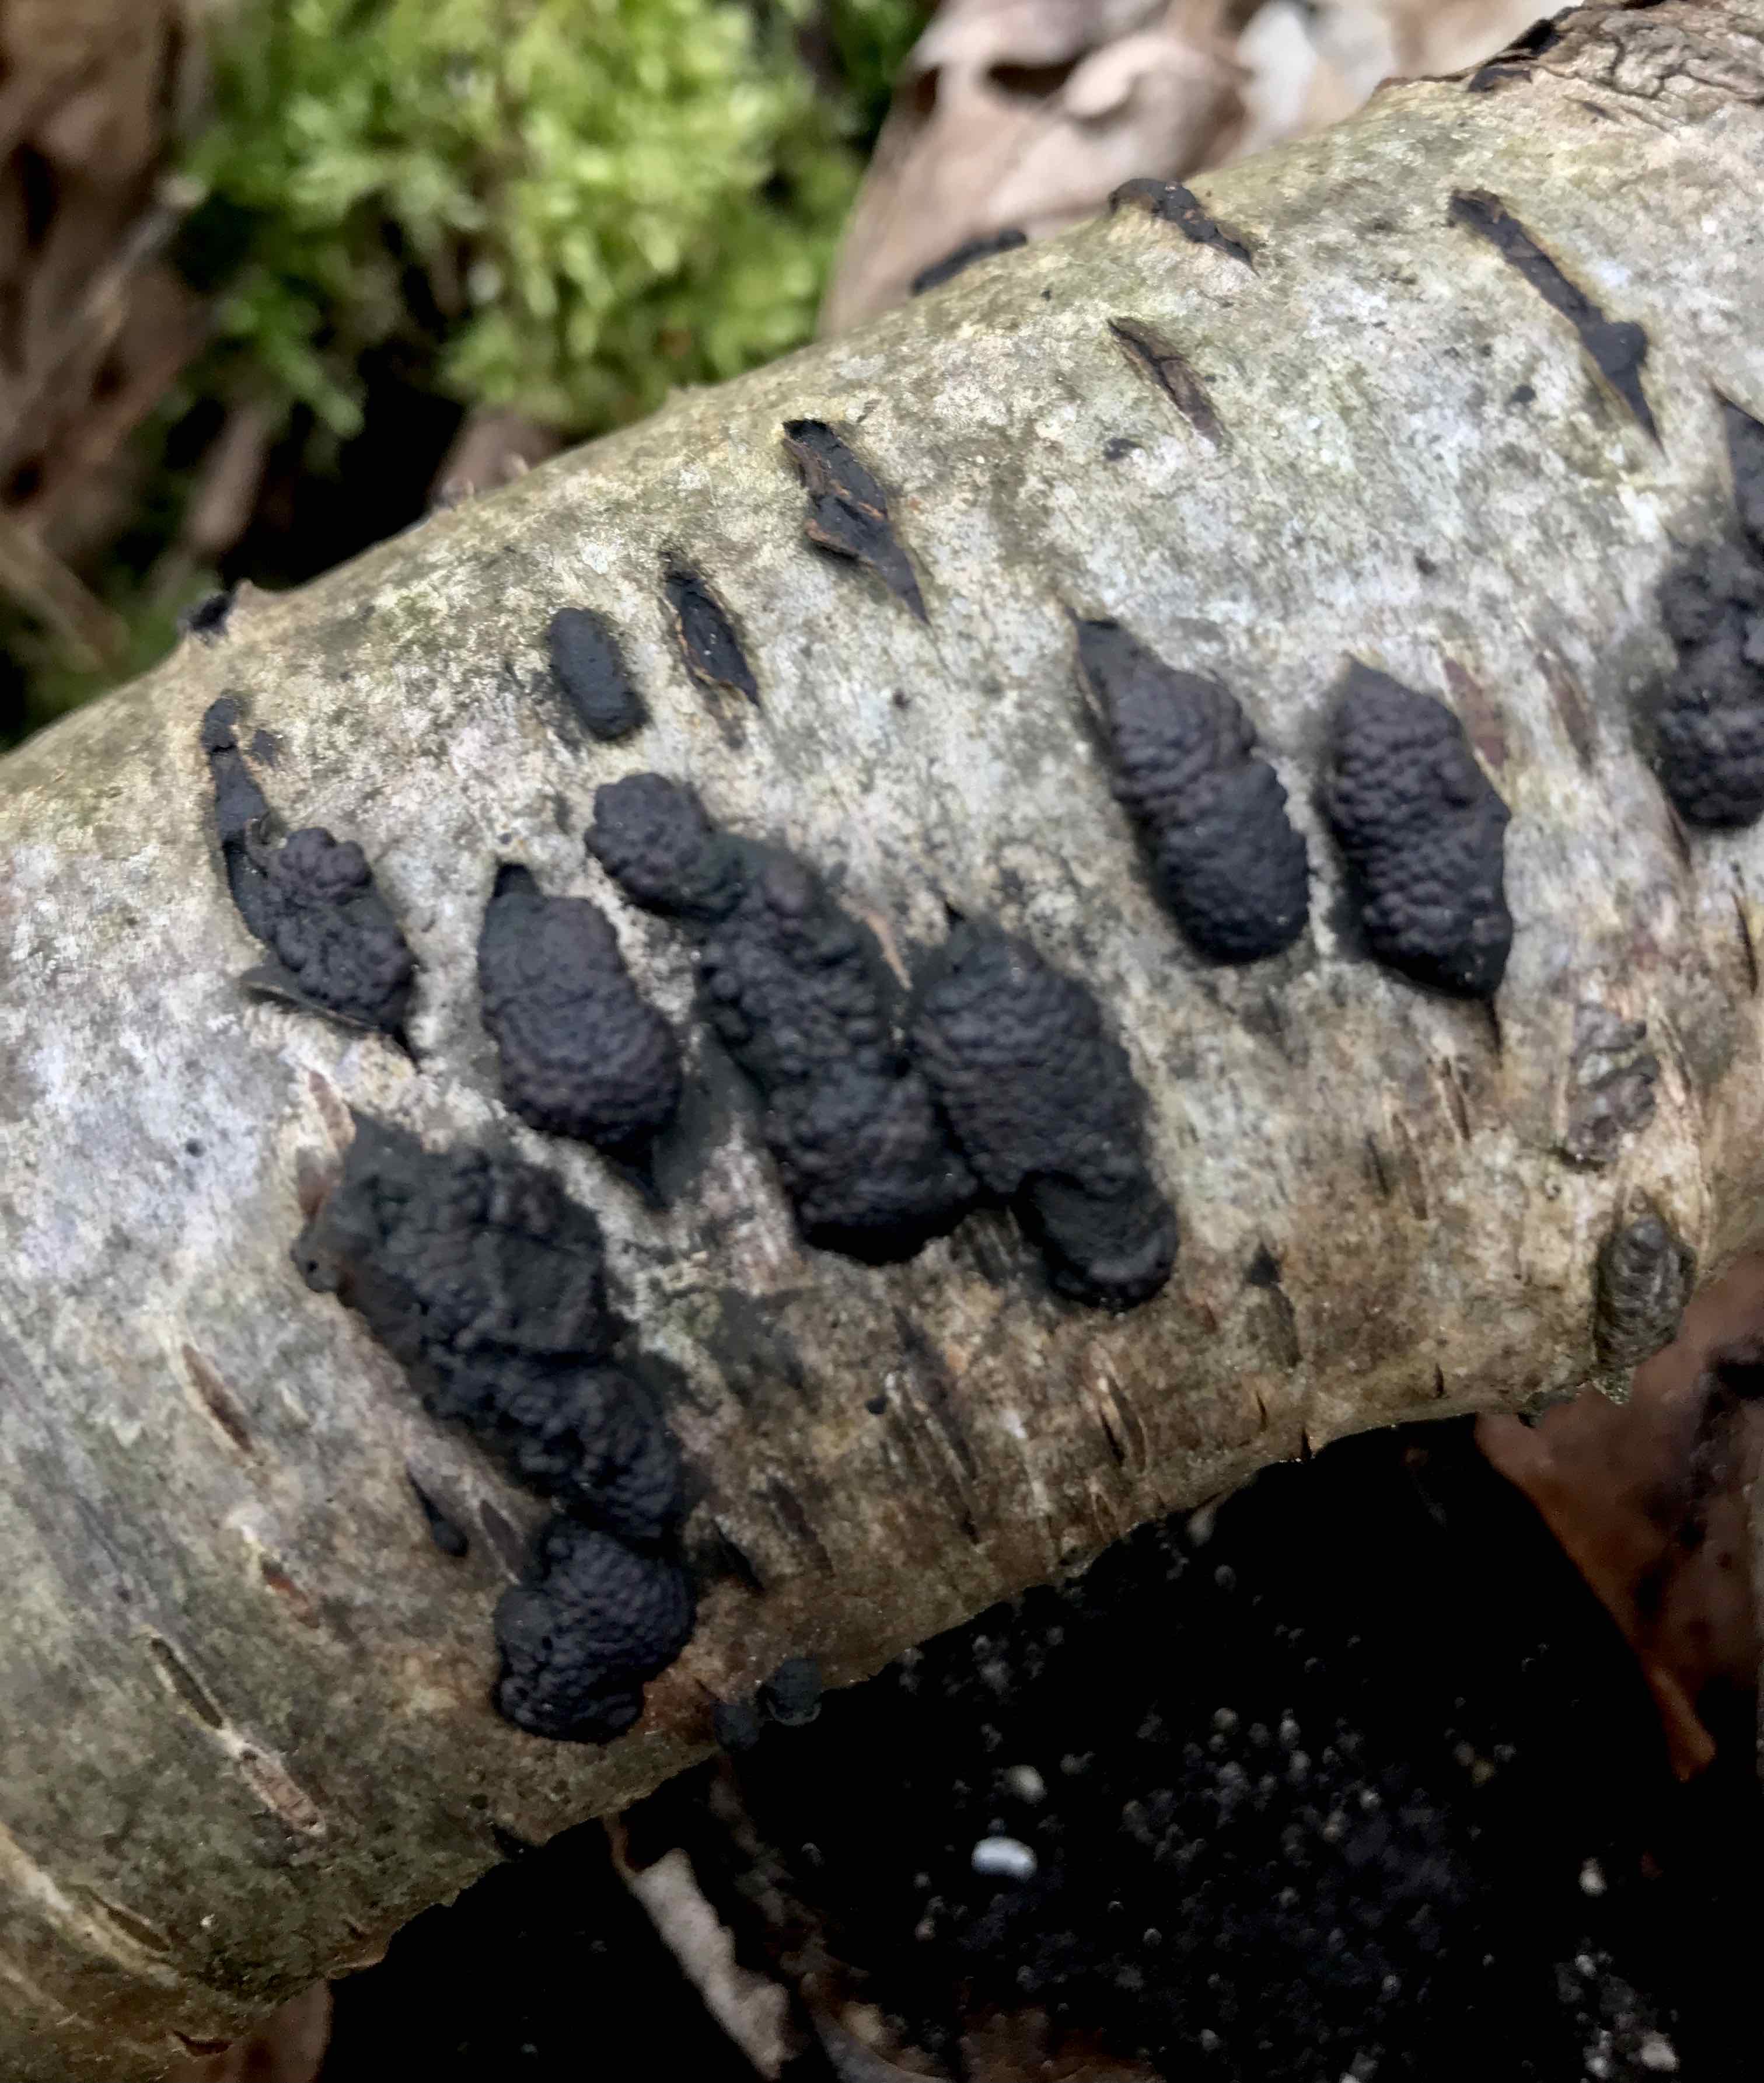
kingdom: Fungi
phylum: Ascomycota
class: Sordariomycetes
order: Xylariales
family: Hypoxylaceae
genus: Jackrogersella
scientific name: Jackrogersella multiformis
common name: foranderlig kulbær
